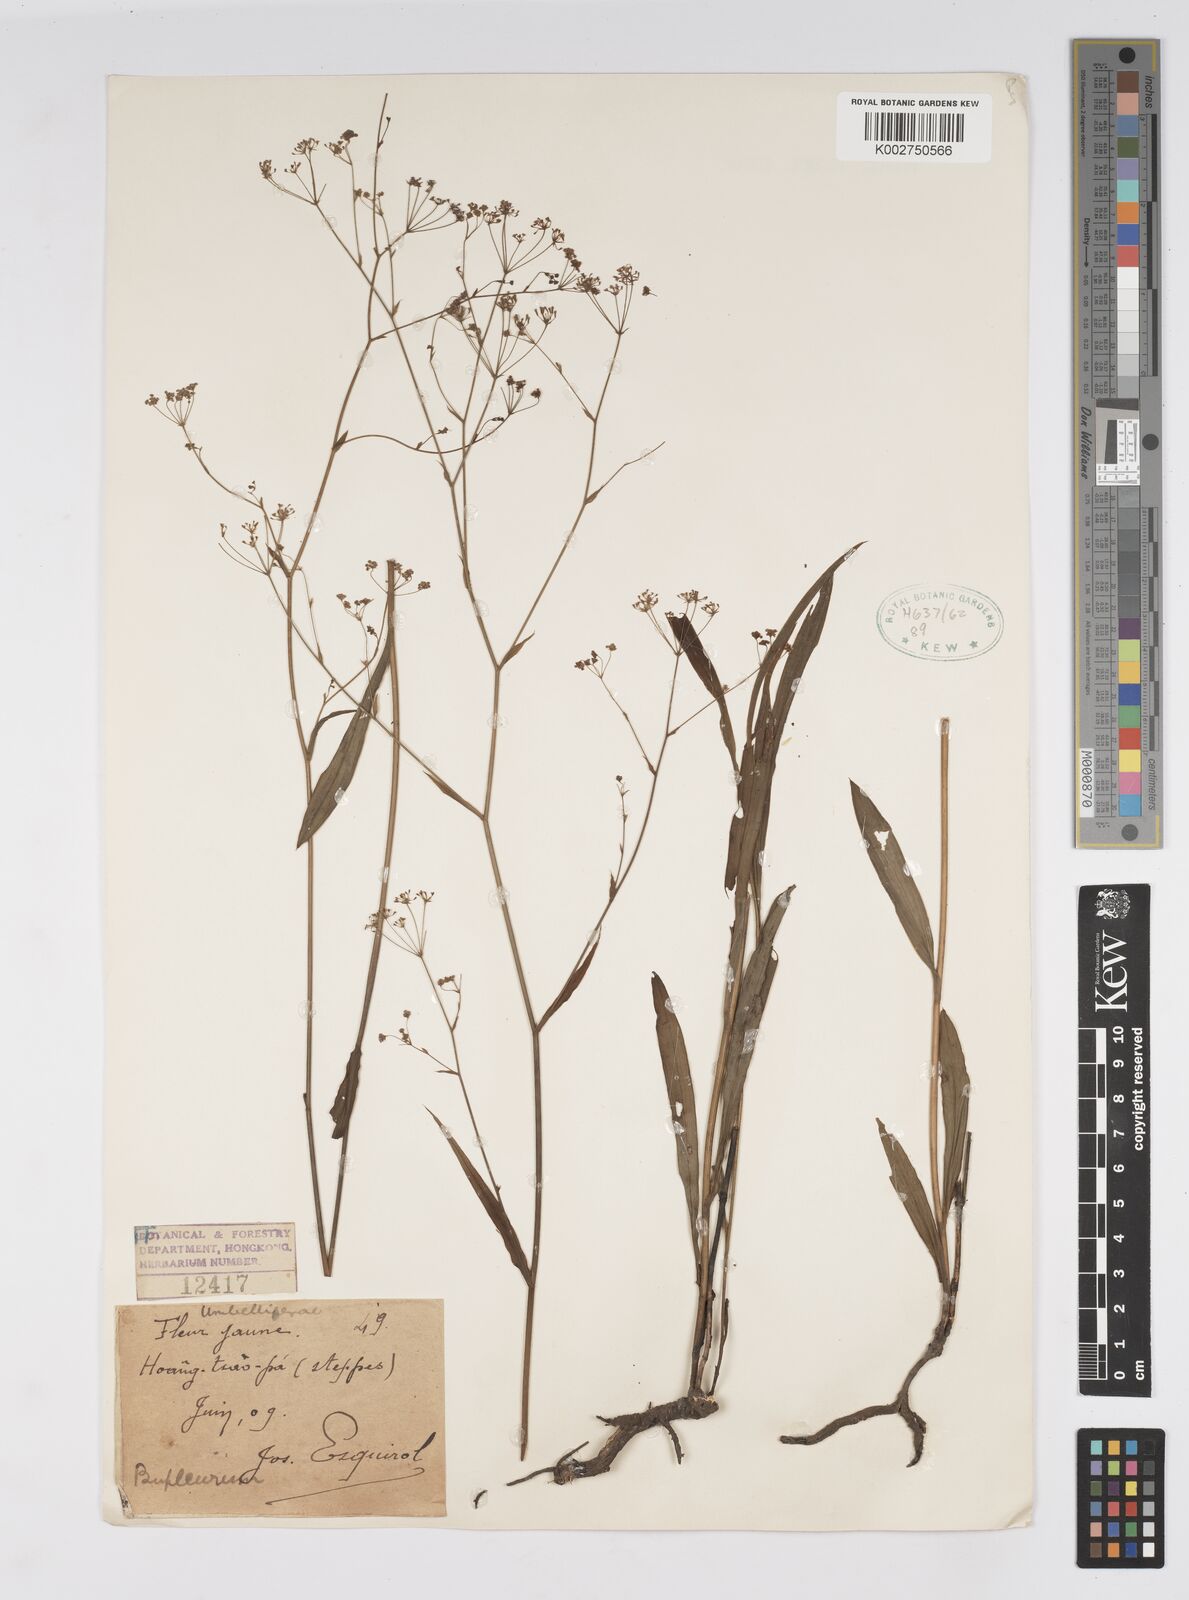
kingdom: Plantae
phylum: Tracheophyta
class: Magnoliopsida
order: Apiales
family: Apiaceae
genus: Bupleurum
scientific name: Bupleurum
